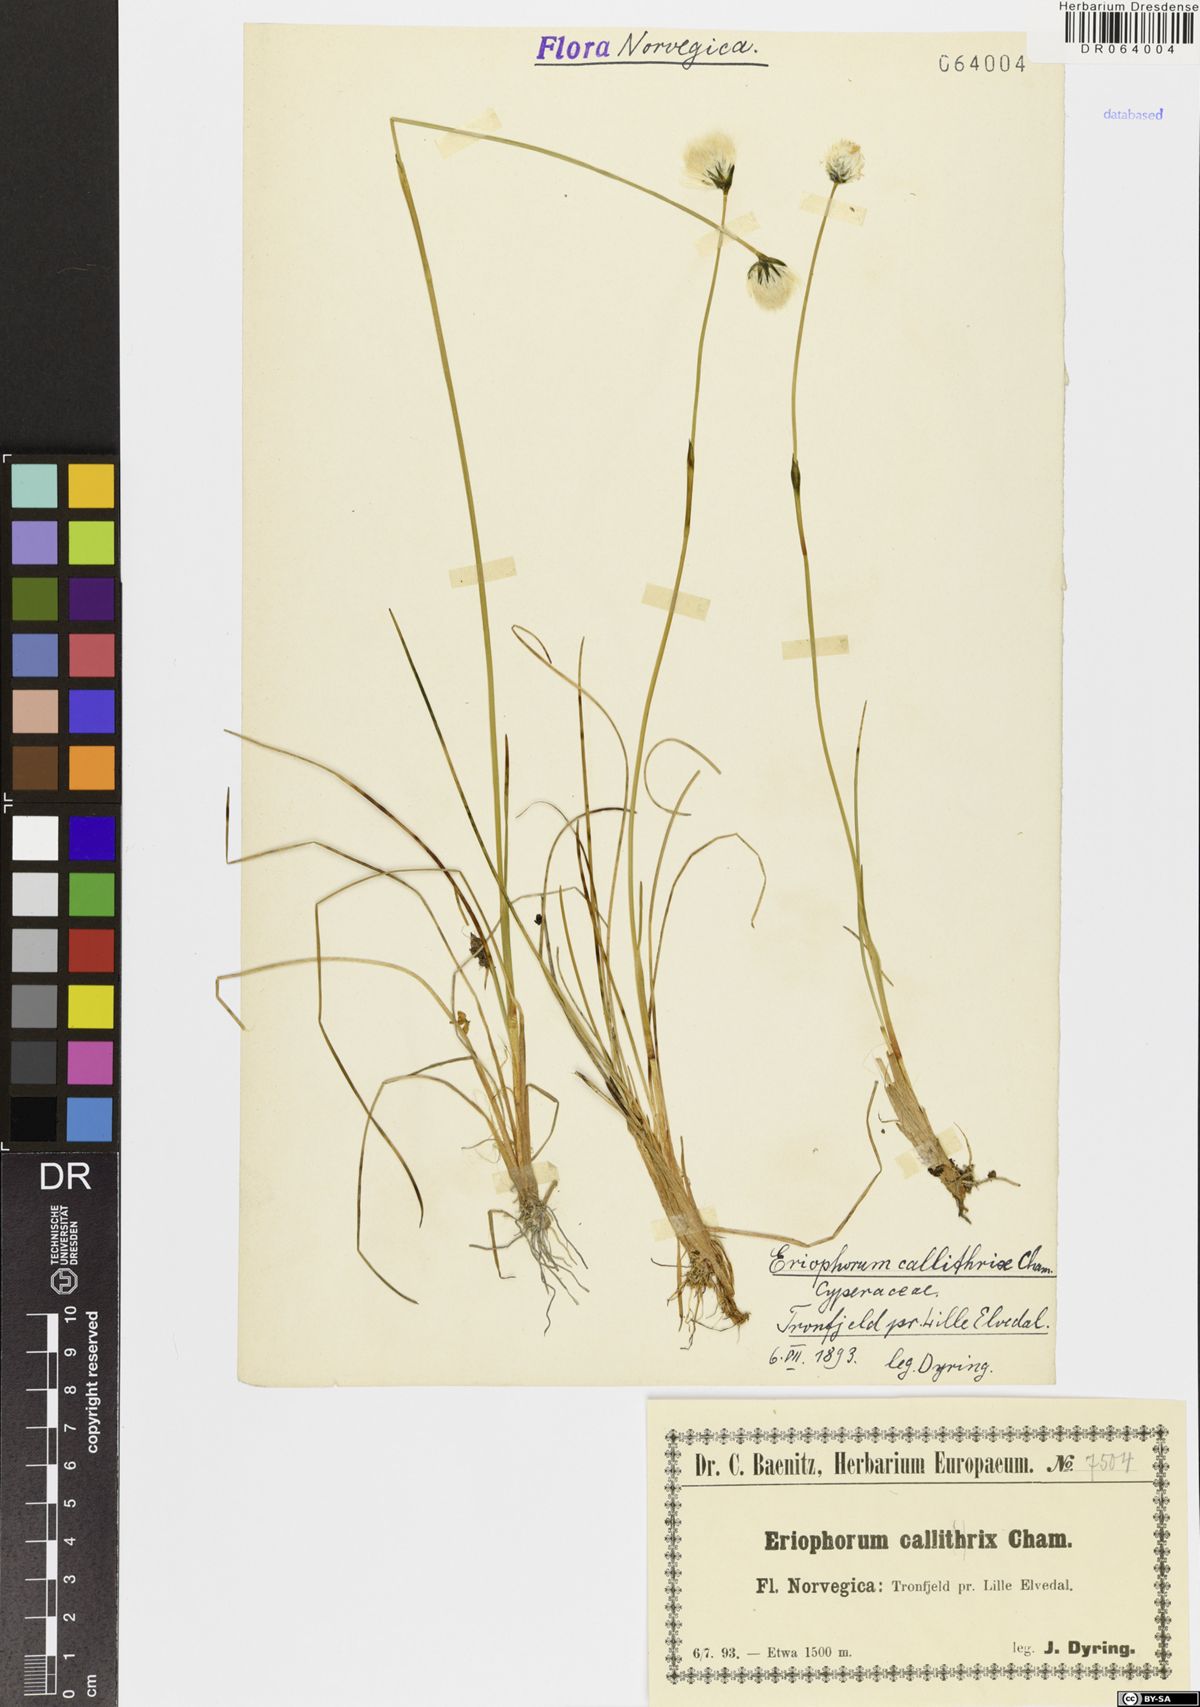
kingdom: Plantae
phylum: Tracheophyta
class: Liliopsida
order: Poales
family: Cyperaceae
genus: Eriophorum
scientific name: Eriophorum callitrix
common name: Arctic cottongrass
